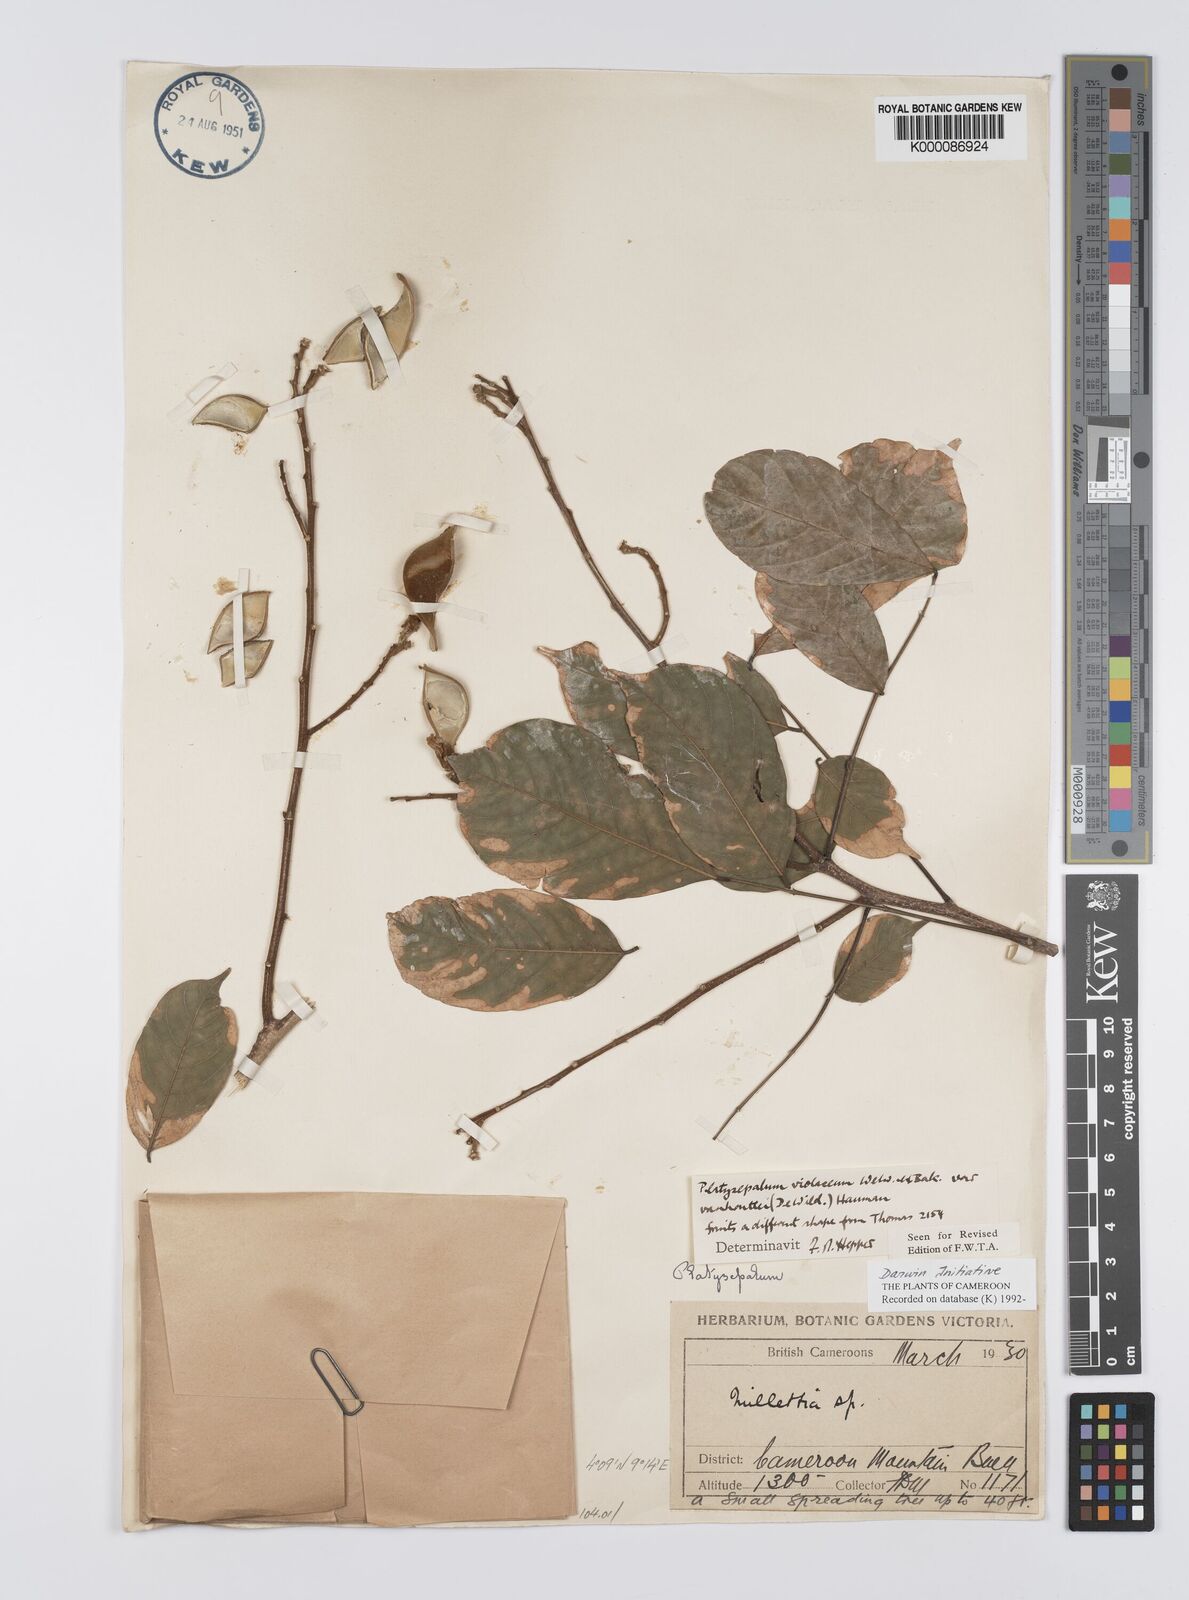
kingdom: Plantae
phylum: Tracheophyta
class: Magnoliopsida
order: Fabales
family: Fabaceae
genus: Platysepalum
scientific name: Platysepalum violaceum
